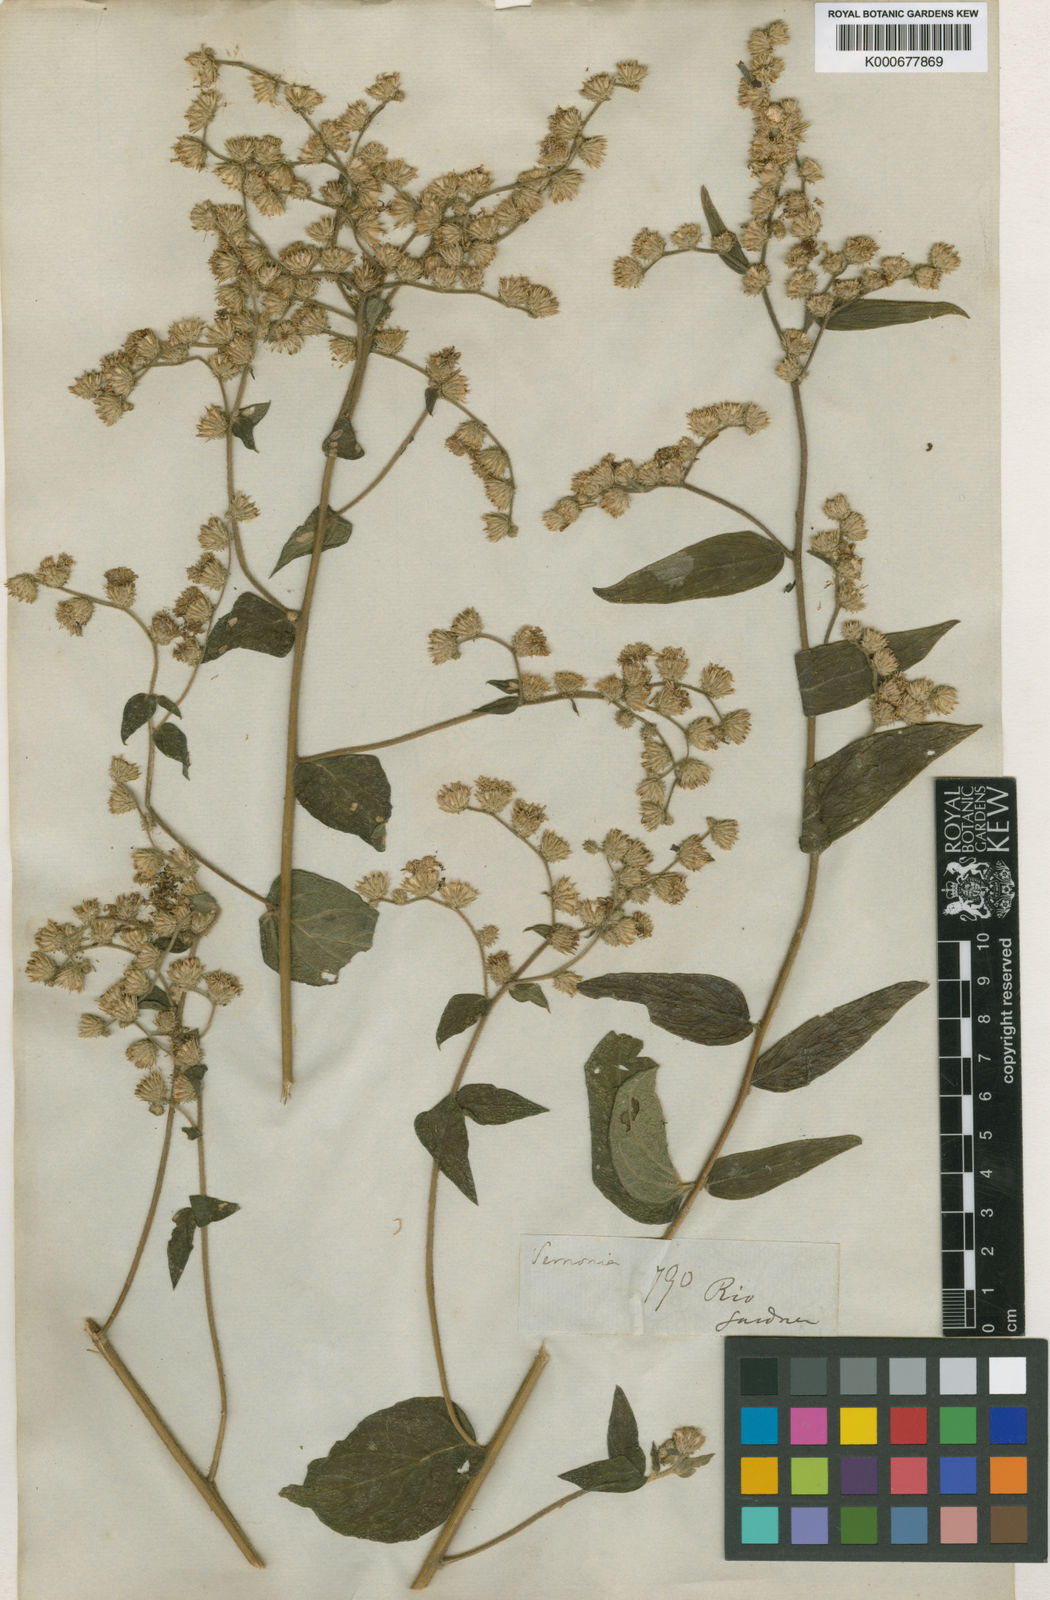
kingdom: Plantae
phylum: Tracheophyta
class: Magnoliopsida
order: Asterales
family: Asteraceae
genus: Lepidaploa
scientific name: Lepidaploa canescens
